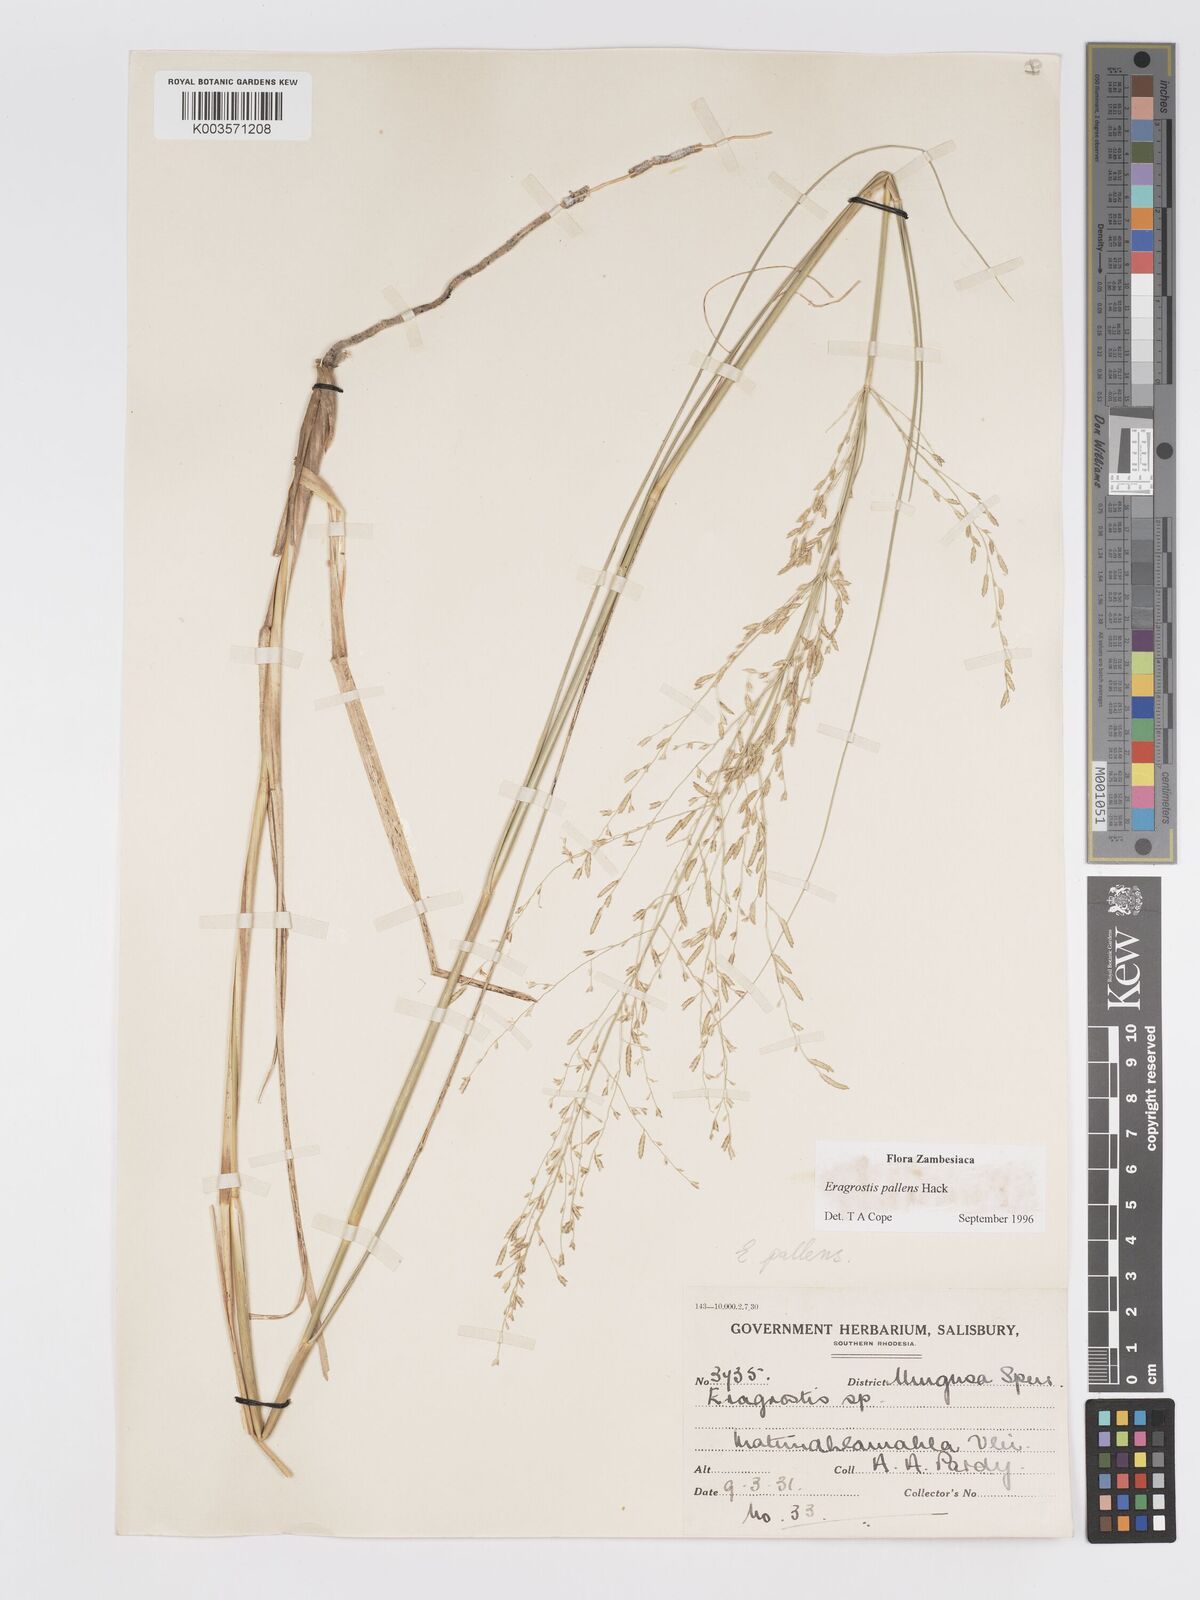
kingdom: Plantae
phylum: Tracheophyta
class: Liliopsida
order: Poales
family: Poaceae
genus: Eragrostis
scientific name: Eragrostis pallens
